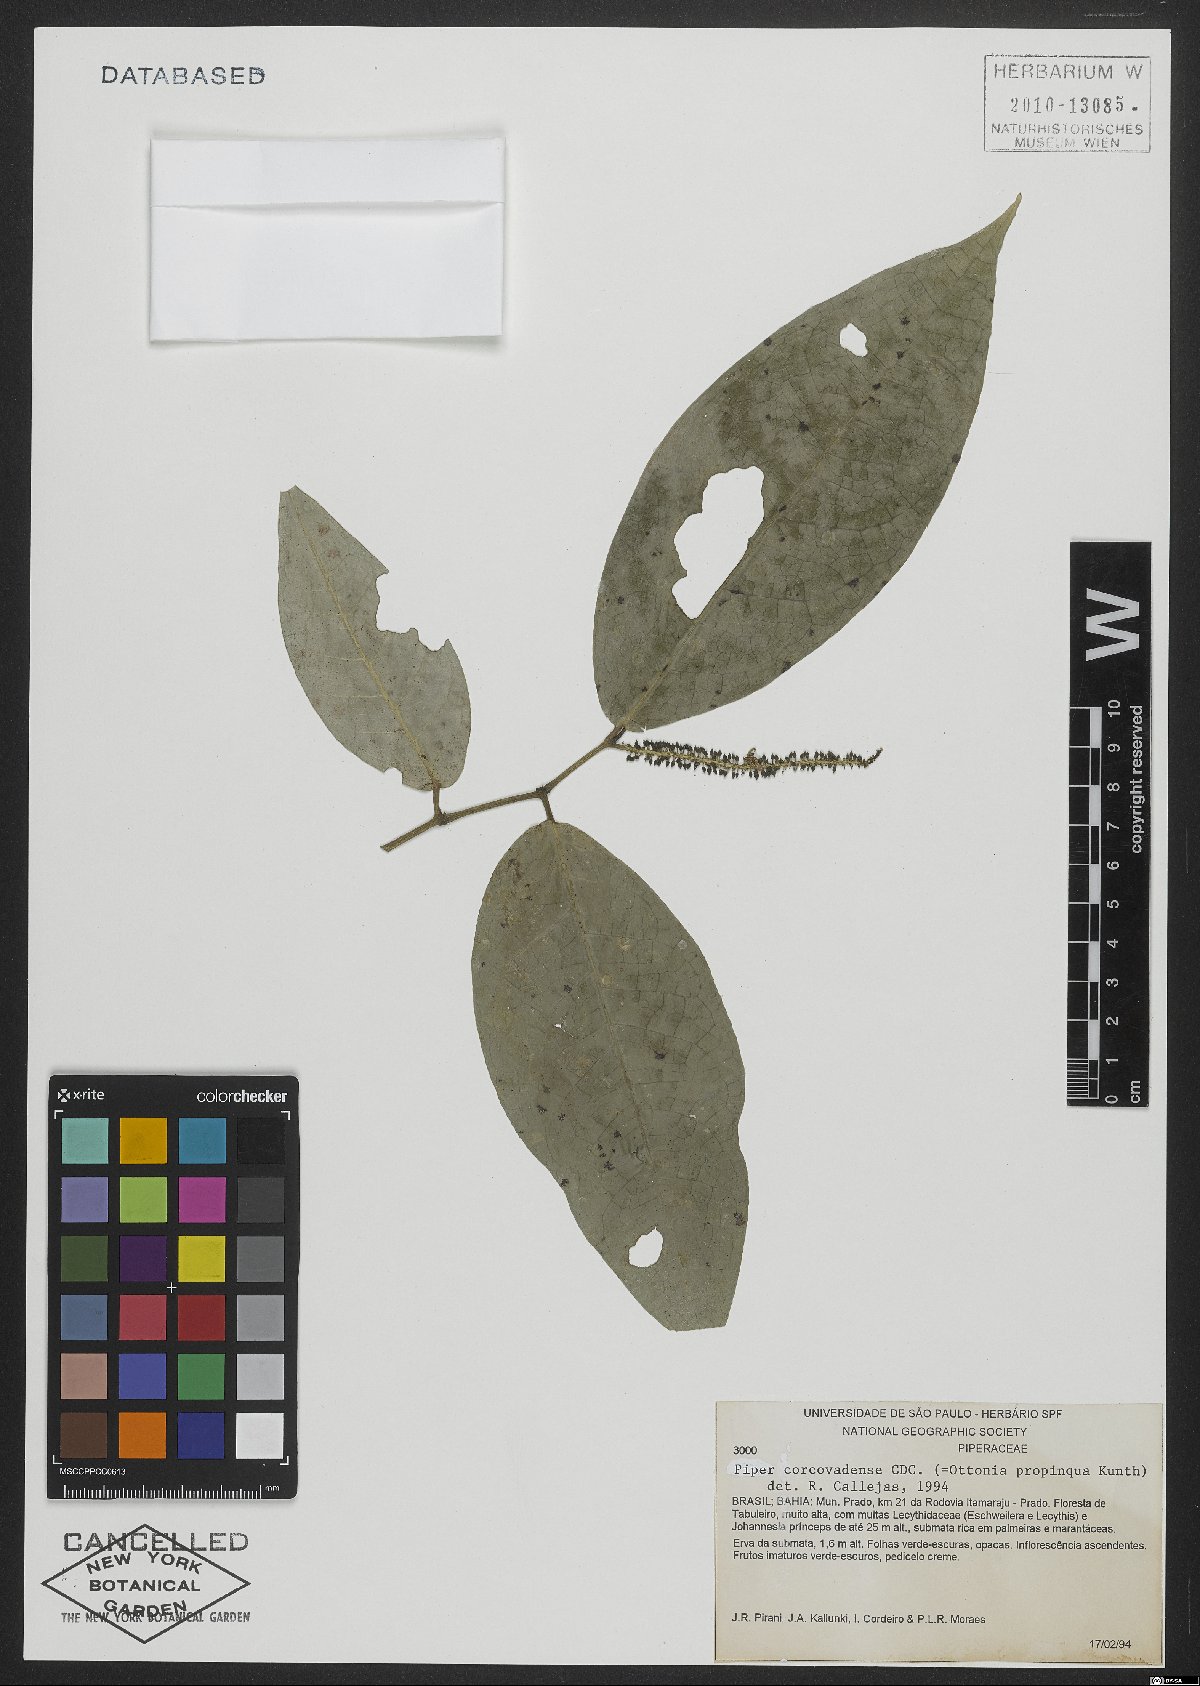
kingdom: Plantae
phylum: Tracheophyta
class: Magnoliopsida
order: Piperales
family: Piperaceae
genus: Piper
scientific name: Piper corcovadense
